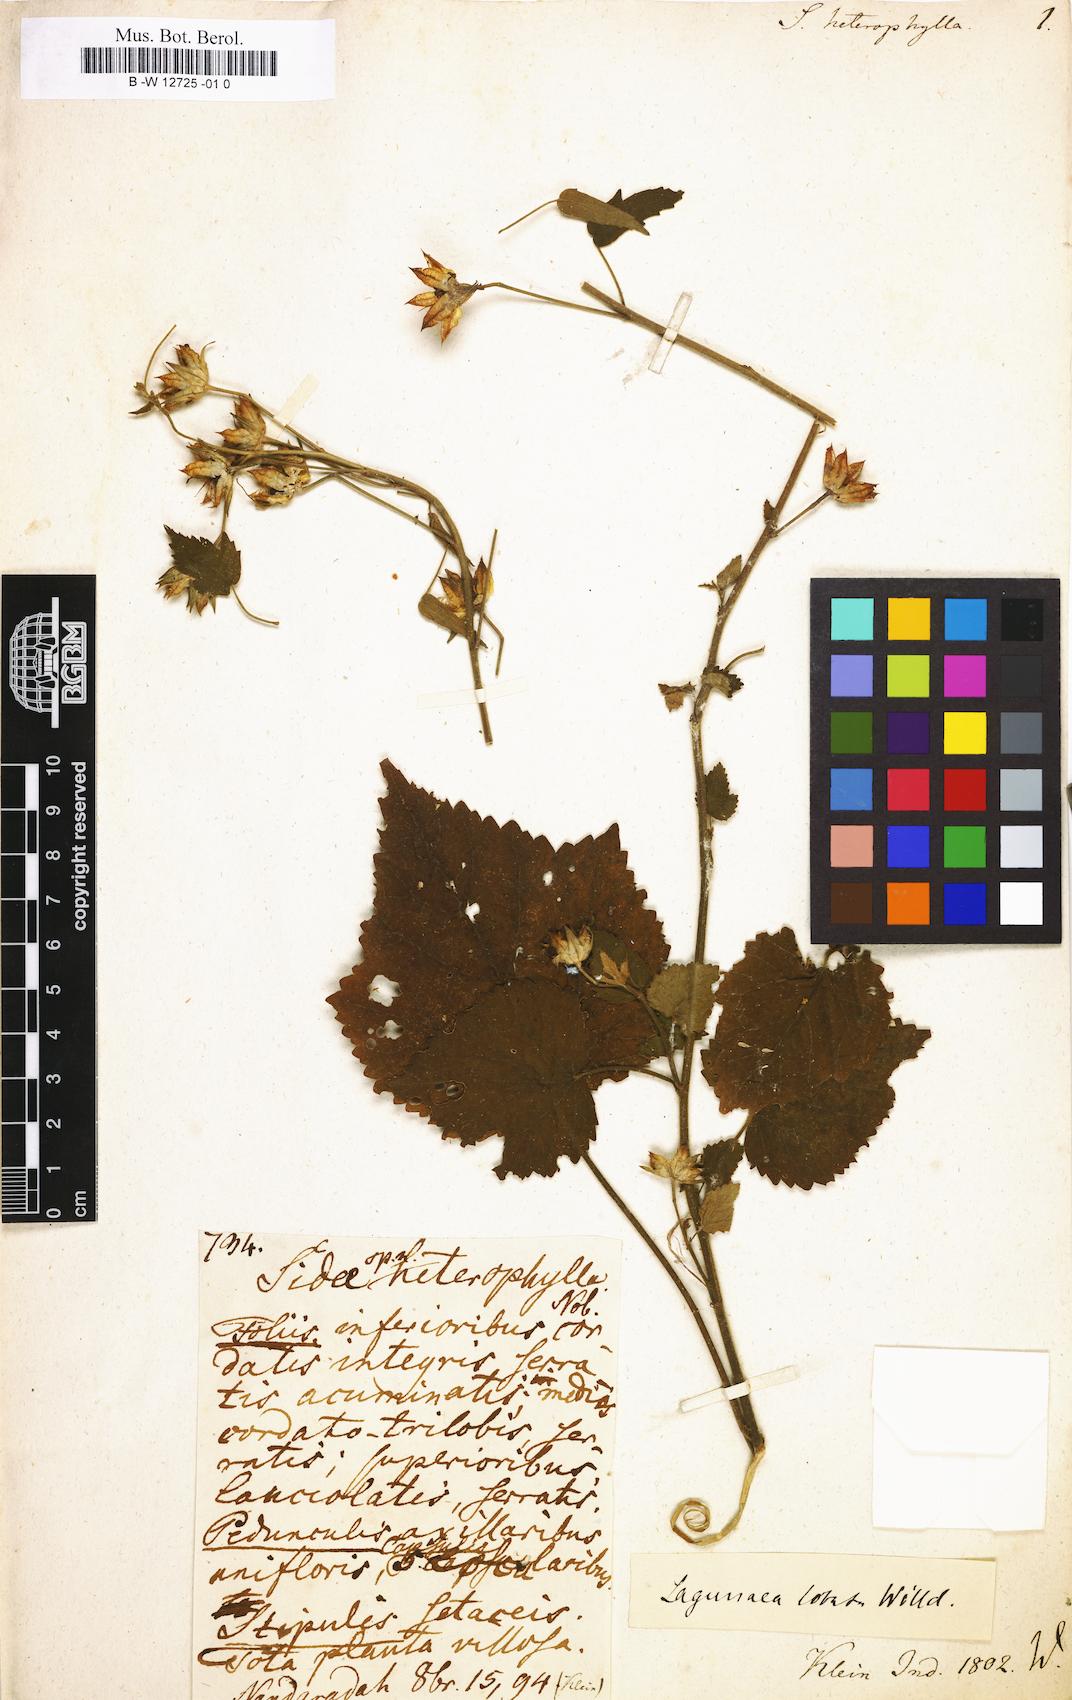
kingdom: Plantae
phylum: Tracheophyta
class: Magnoliopsida
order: Malvales
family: Malvaceae
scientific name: Malvaceae
